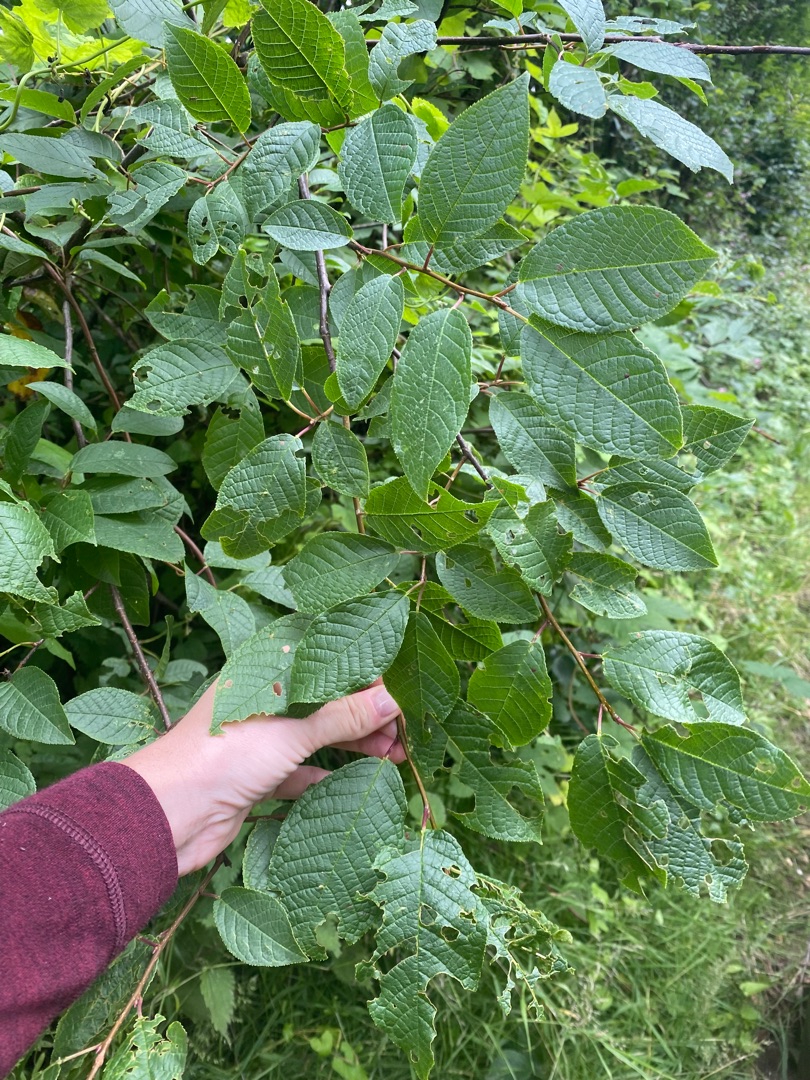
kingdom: Plantae
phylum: Tracheophyta
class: Magnoliopsida
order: Rosales
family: Rosaceae
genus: Prunus
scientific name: Prunus padus
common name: Almindelig hæg
